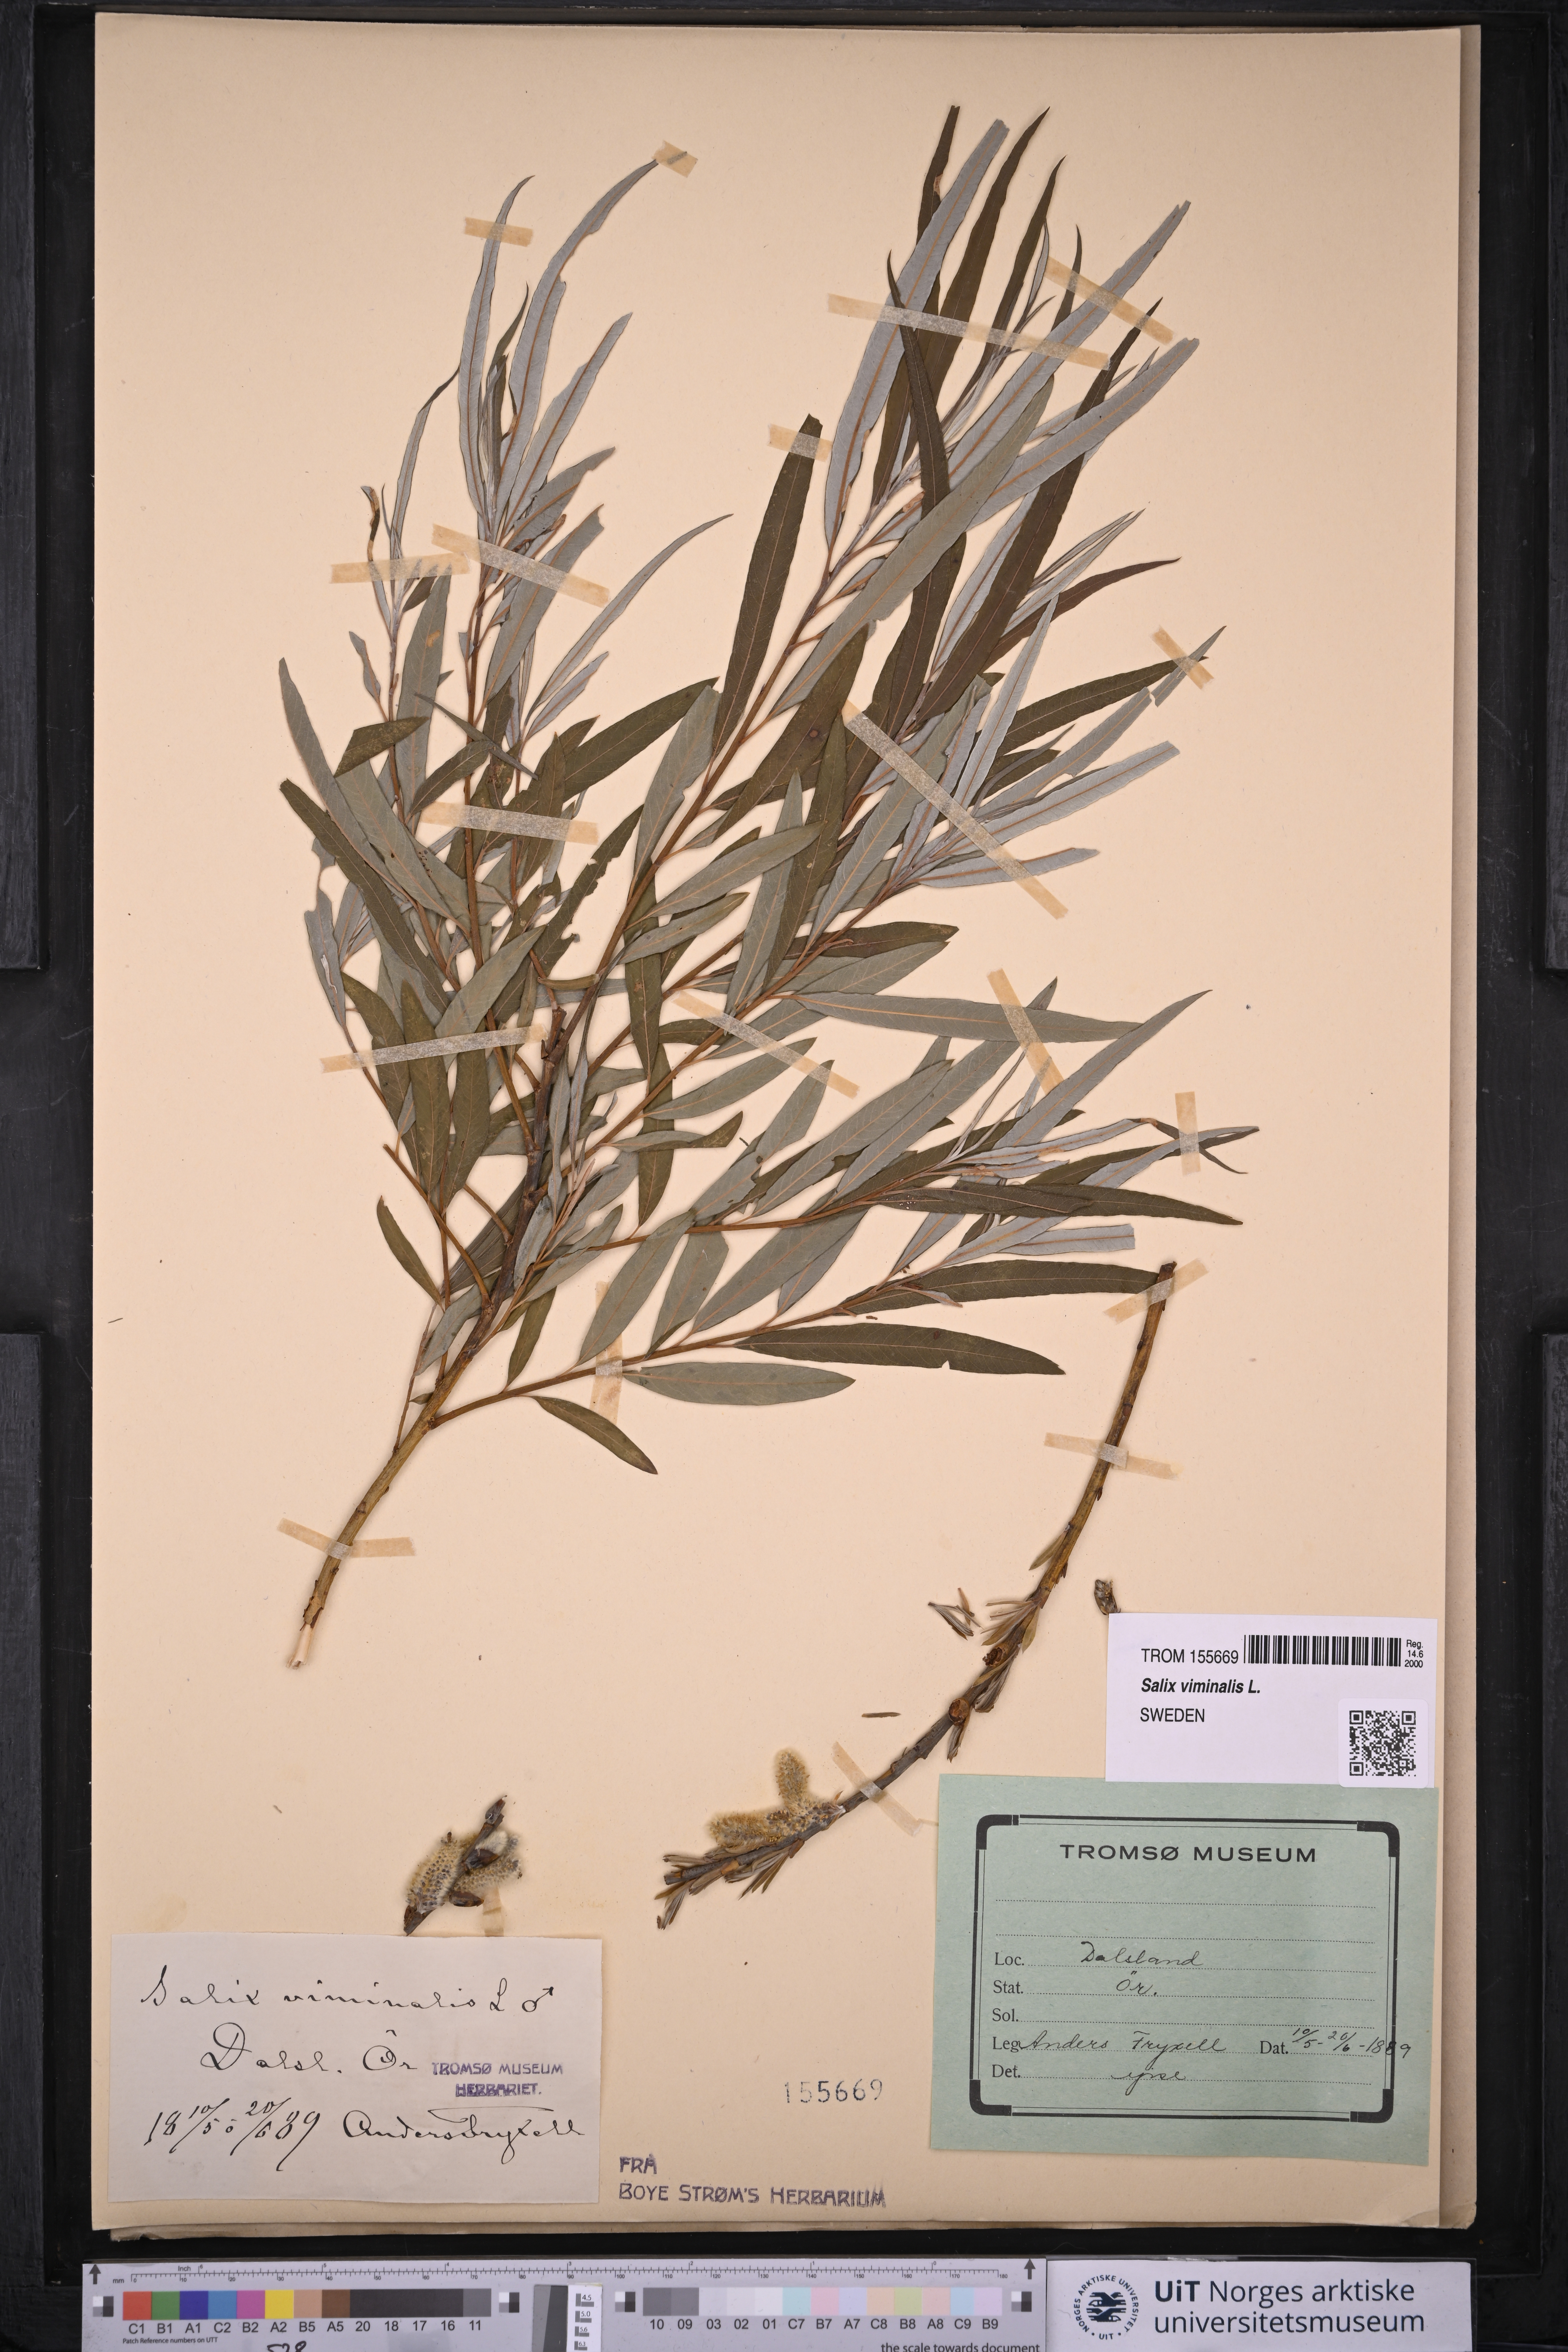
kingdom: Plantae
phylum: Tracheophyta
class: Magnoliopsida
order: Malpighiales
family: Salicaceae
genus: Salix
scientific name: Salix viminalis
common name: Osier
